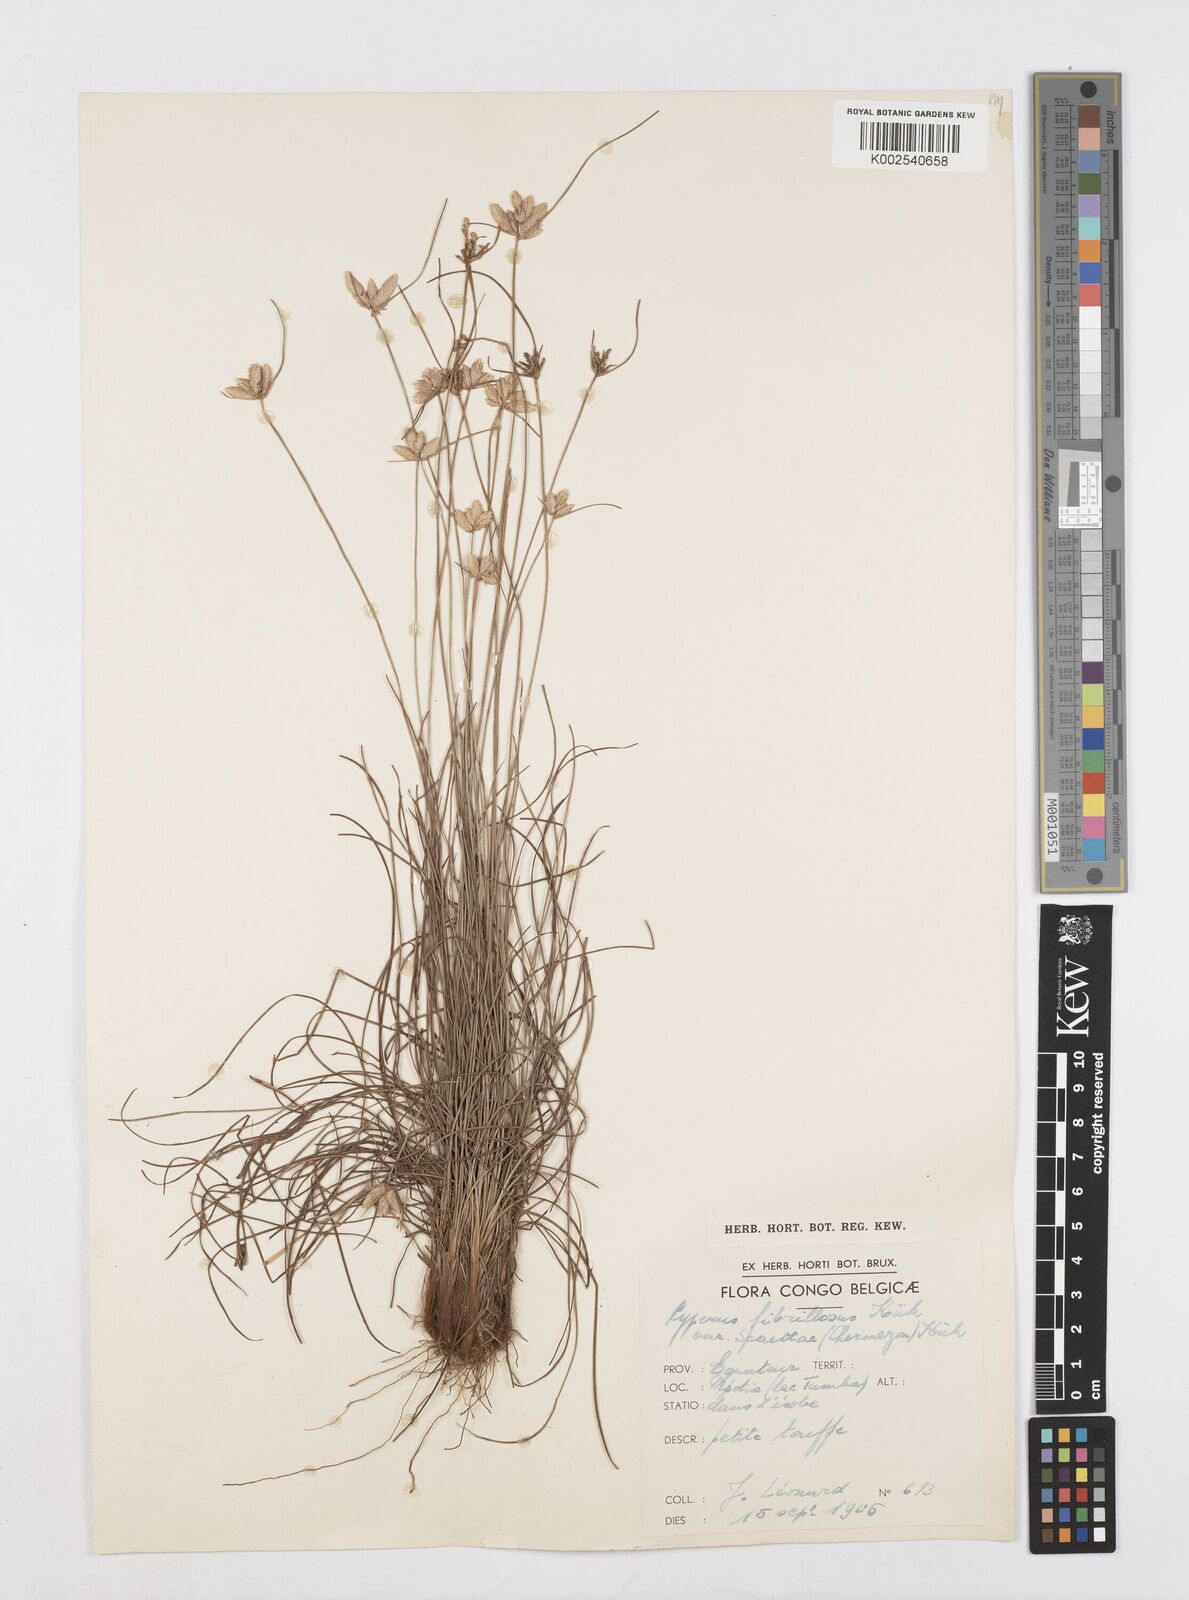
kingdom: Plantae
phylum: Tracheophyta
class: Liliopsida
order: Poales
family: Cyperaceae
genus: Cyperus
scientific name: Cyperus scaettae
